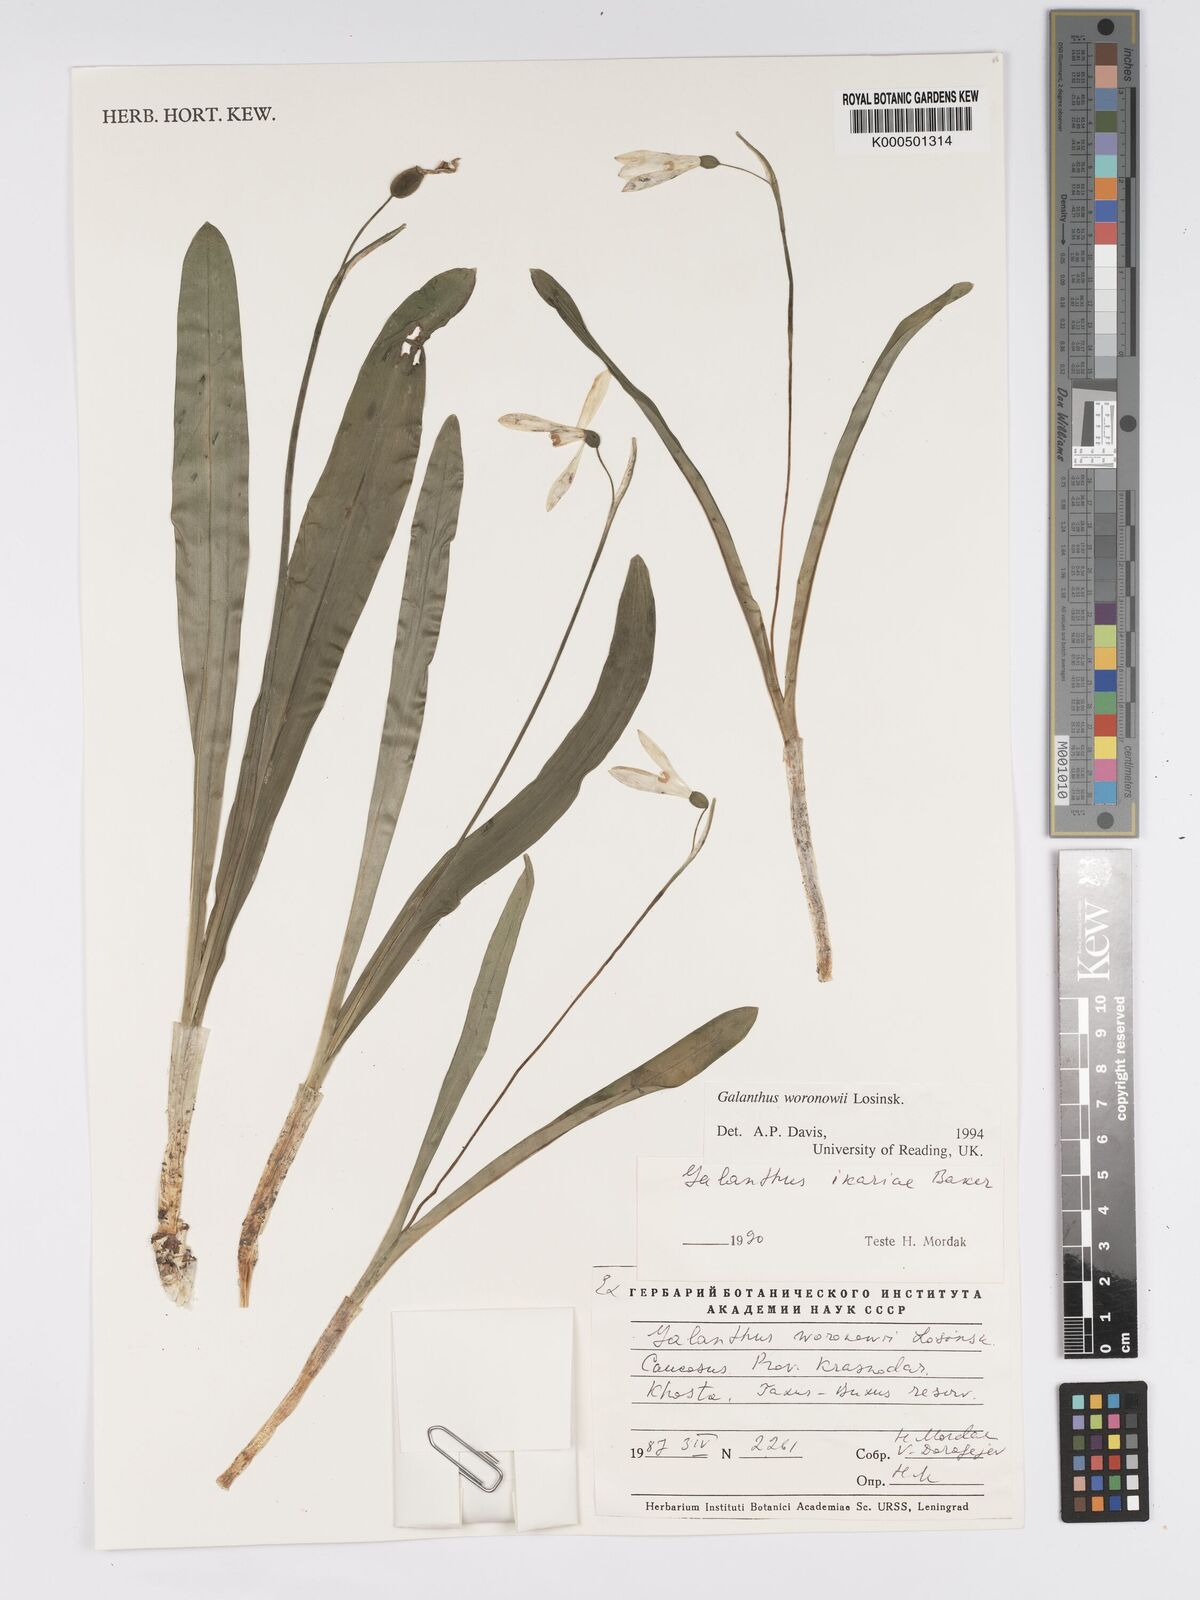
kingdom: Plantae
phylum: Tracheophyta
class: Liliopsida
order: Asparagales
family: Amaryllidaceae
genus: Galanthus
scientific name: Galanthus woronowii
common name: Green snowdrop
